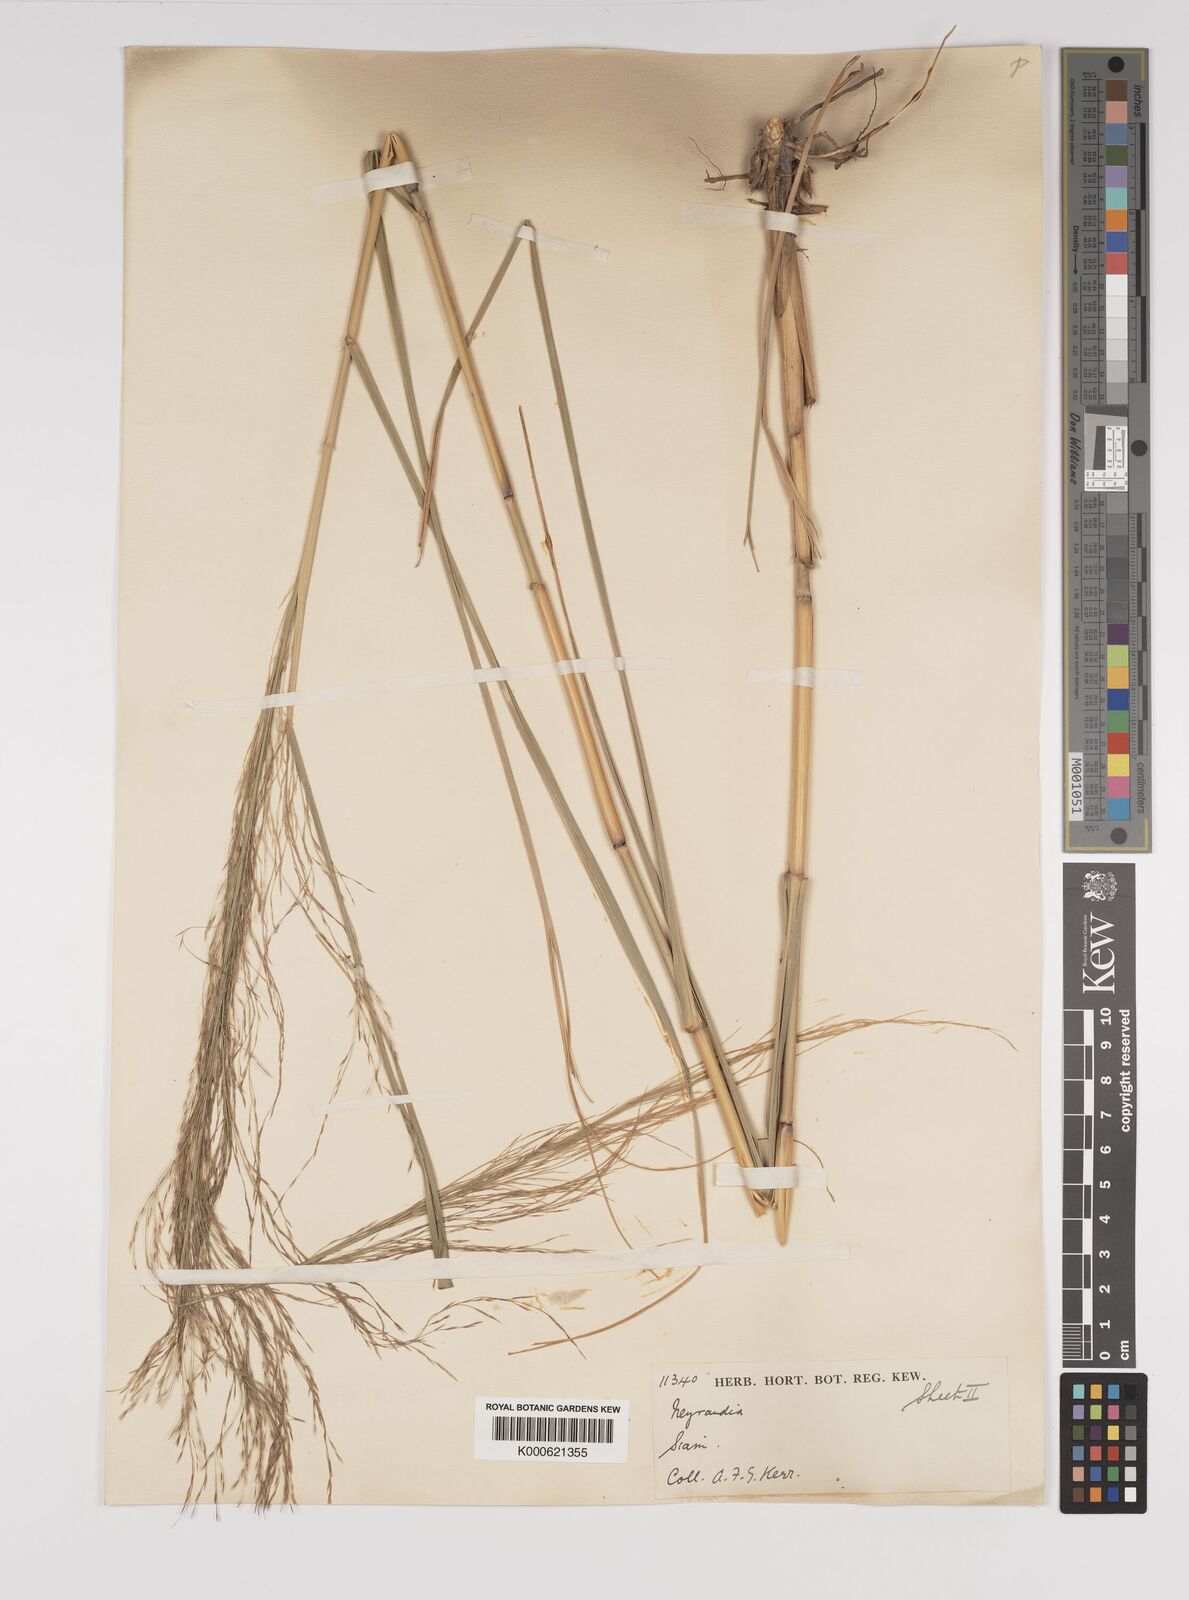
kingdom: Plantae
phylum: Tracheophyta
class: Liliopsida
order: Poales
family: Poaceae
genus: Neyraudia
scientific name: Neyraudia reynaudiana
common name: Silkreed
